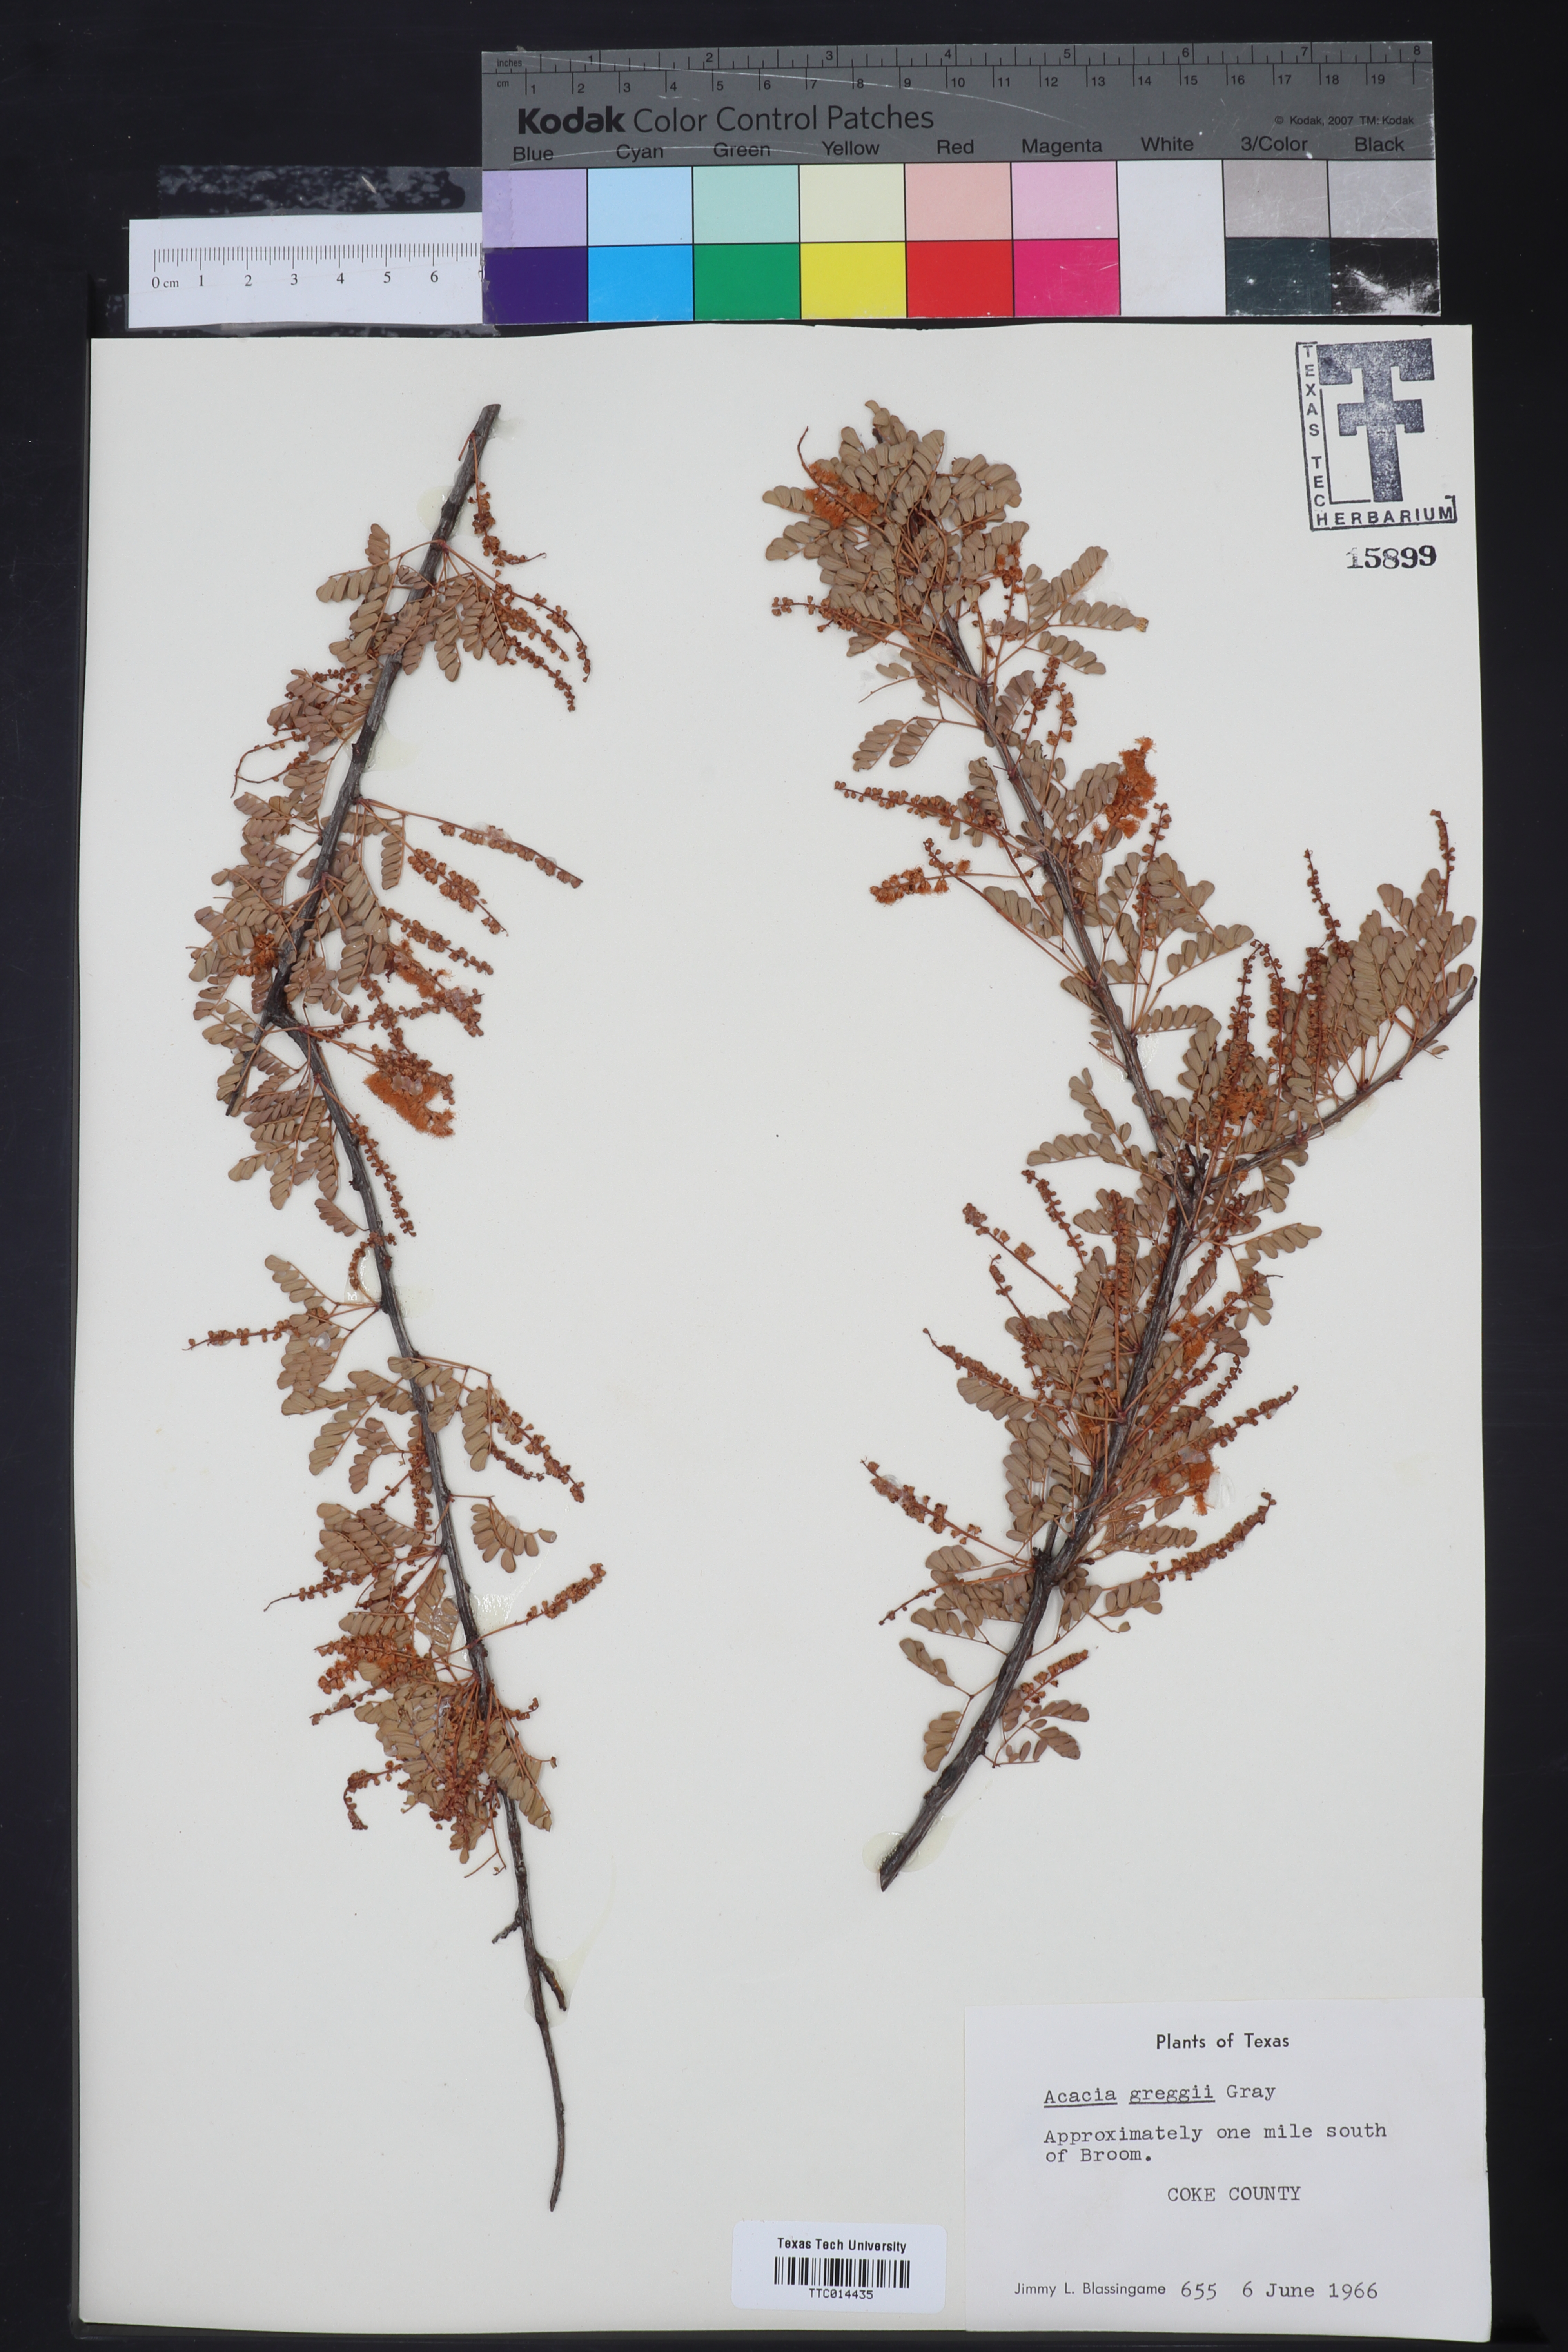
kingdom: Plantae
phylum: Tracheophyta
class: Magnoliopsida
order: Fabales
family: Fabaceae
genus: Senegalia
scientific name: Senegalia greggii
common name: Texas-mimosa
